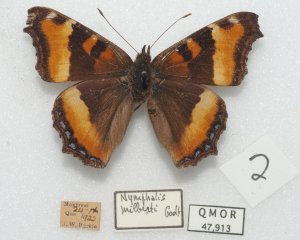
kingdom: Animalia
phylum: Arthropoda
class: Insecta
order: Lepidoptera
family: Nymphalidae
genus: Aglais
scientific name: Aglais milberti
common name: Milbert's Tortoiseshell
